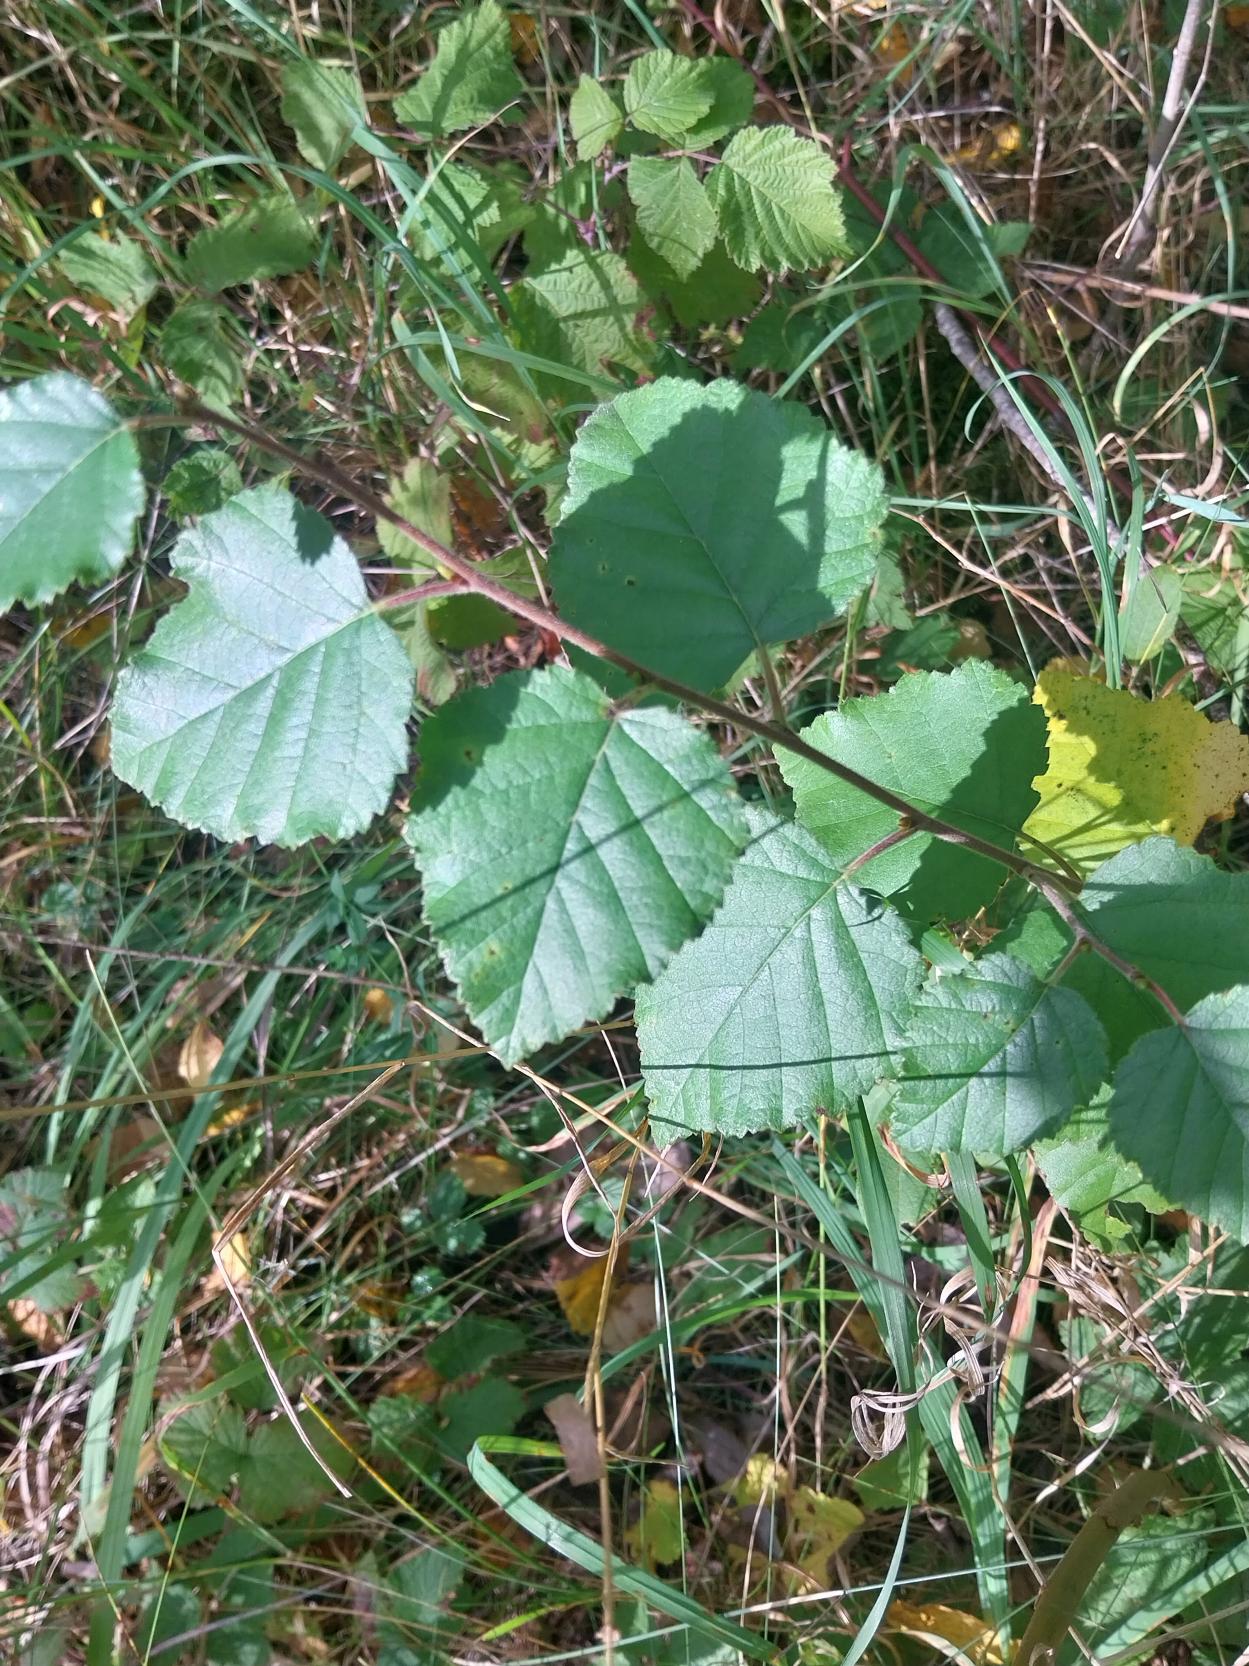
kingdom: Plantae
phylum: Tracheophyta
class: Magnoliopsida
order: Fagales
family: Betulaceae
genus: Betula
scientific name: Betula pubescens
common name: Dun-birk
